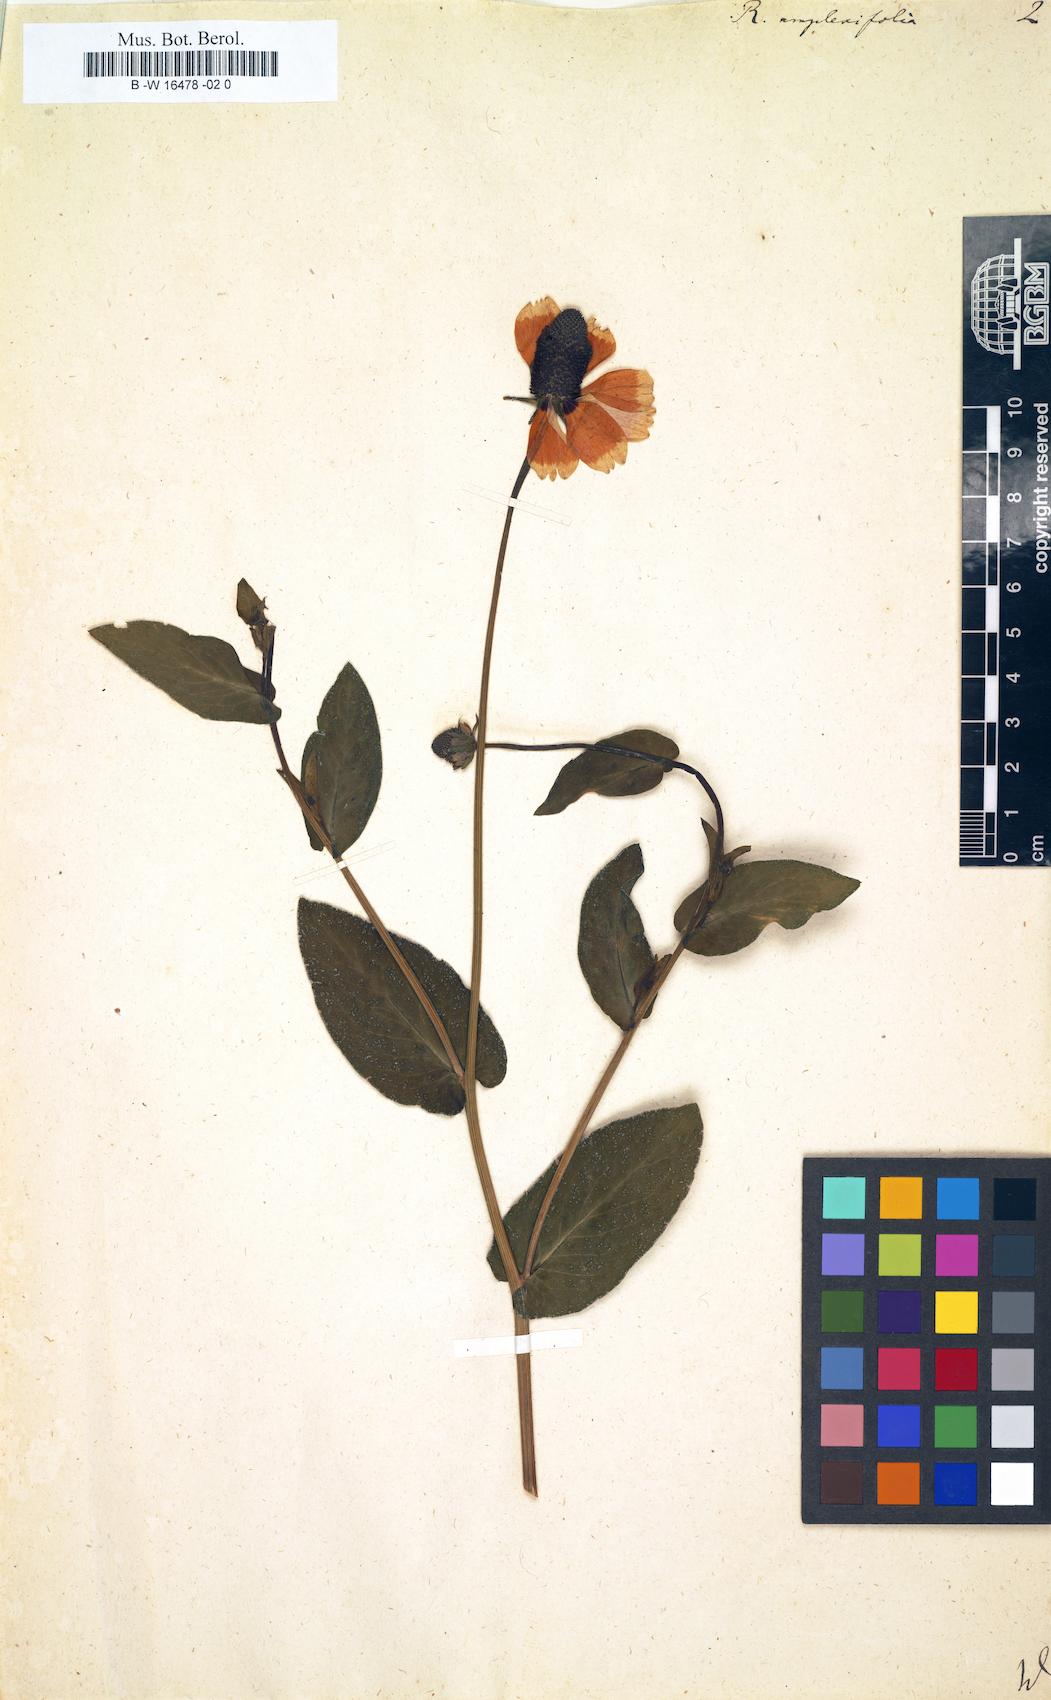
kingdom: Plantae
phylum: Tracheophyta
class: Magnoliopsida
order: Asterales
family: Asteraceae
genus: Rudbeckia
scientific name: Rudbeckia amplexifolia
